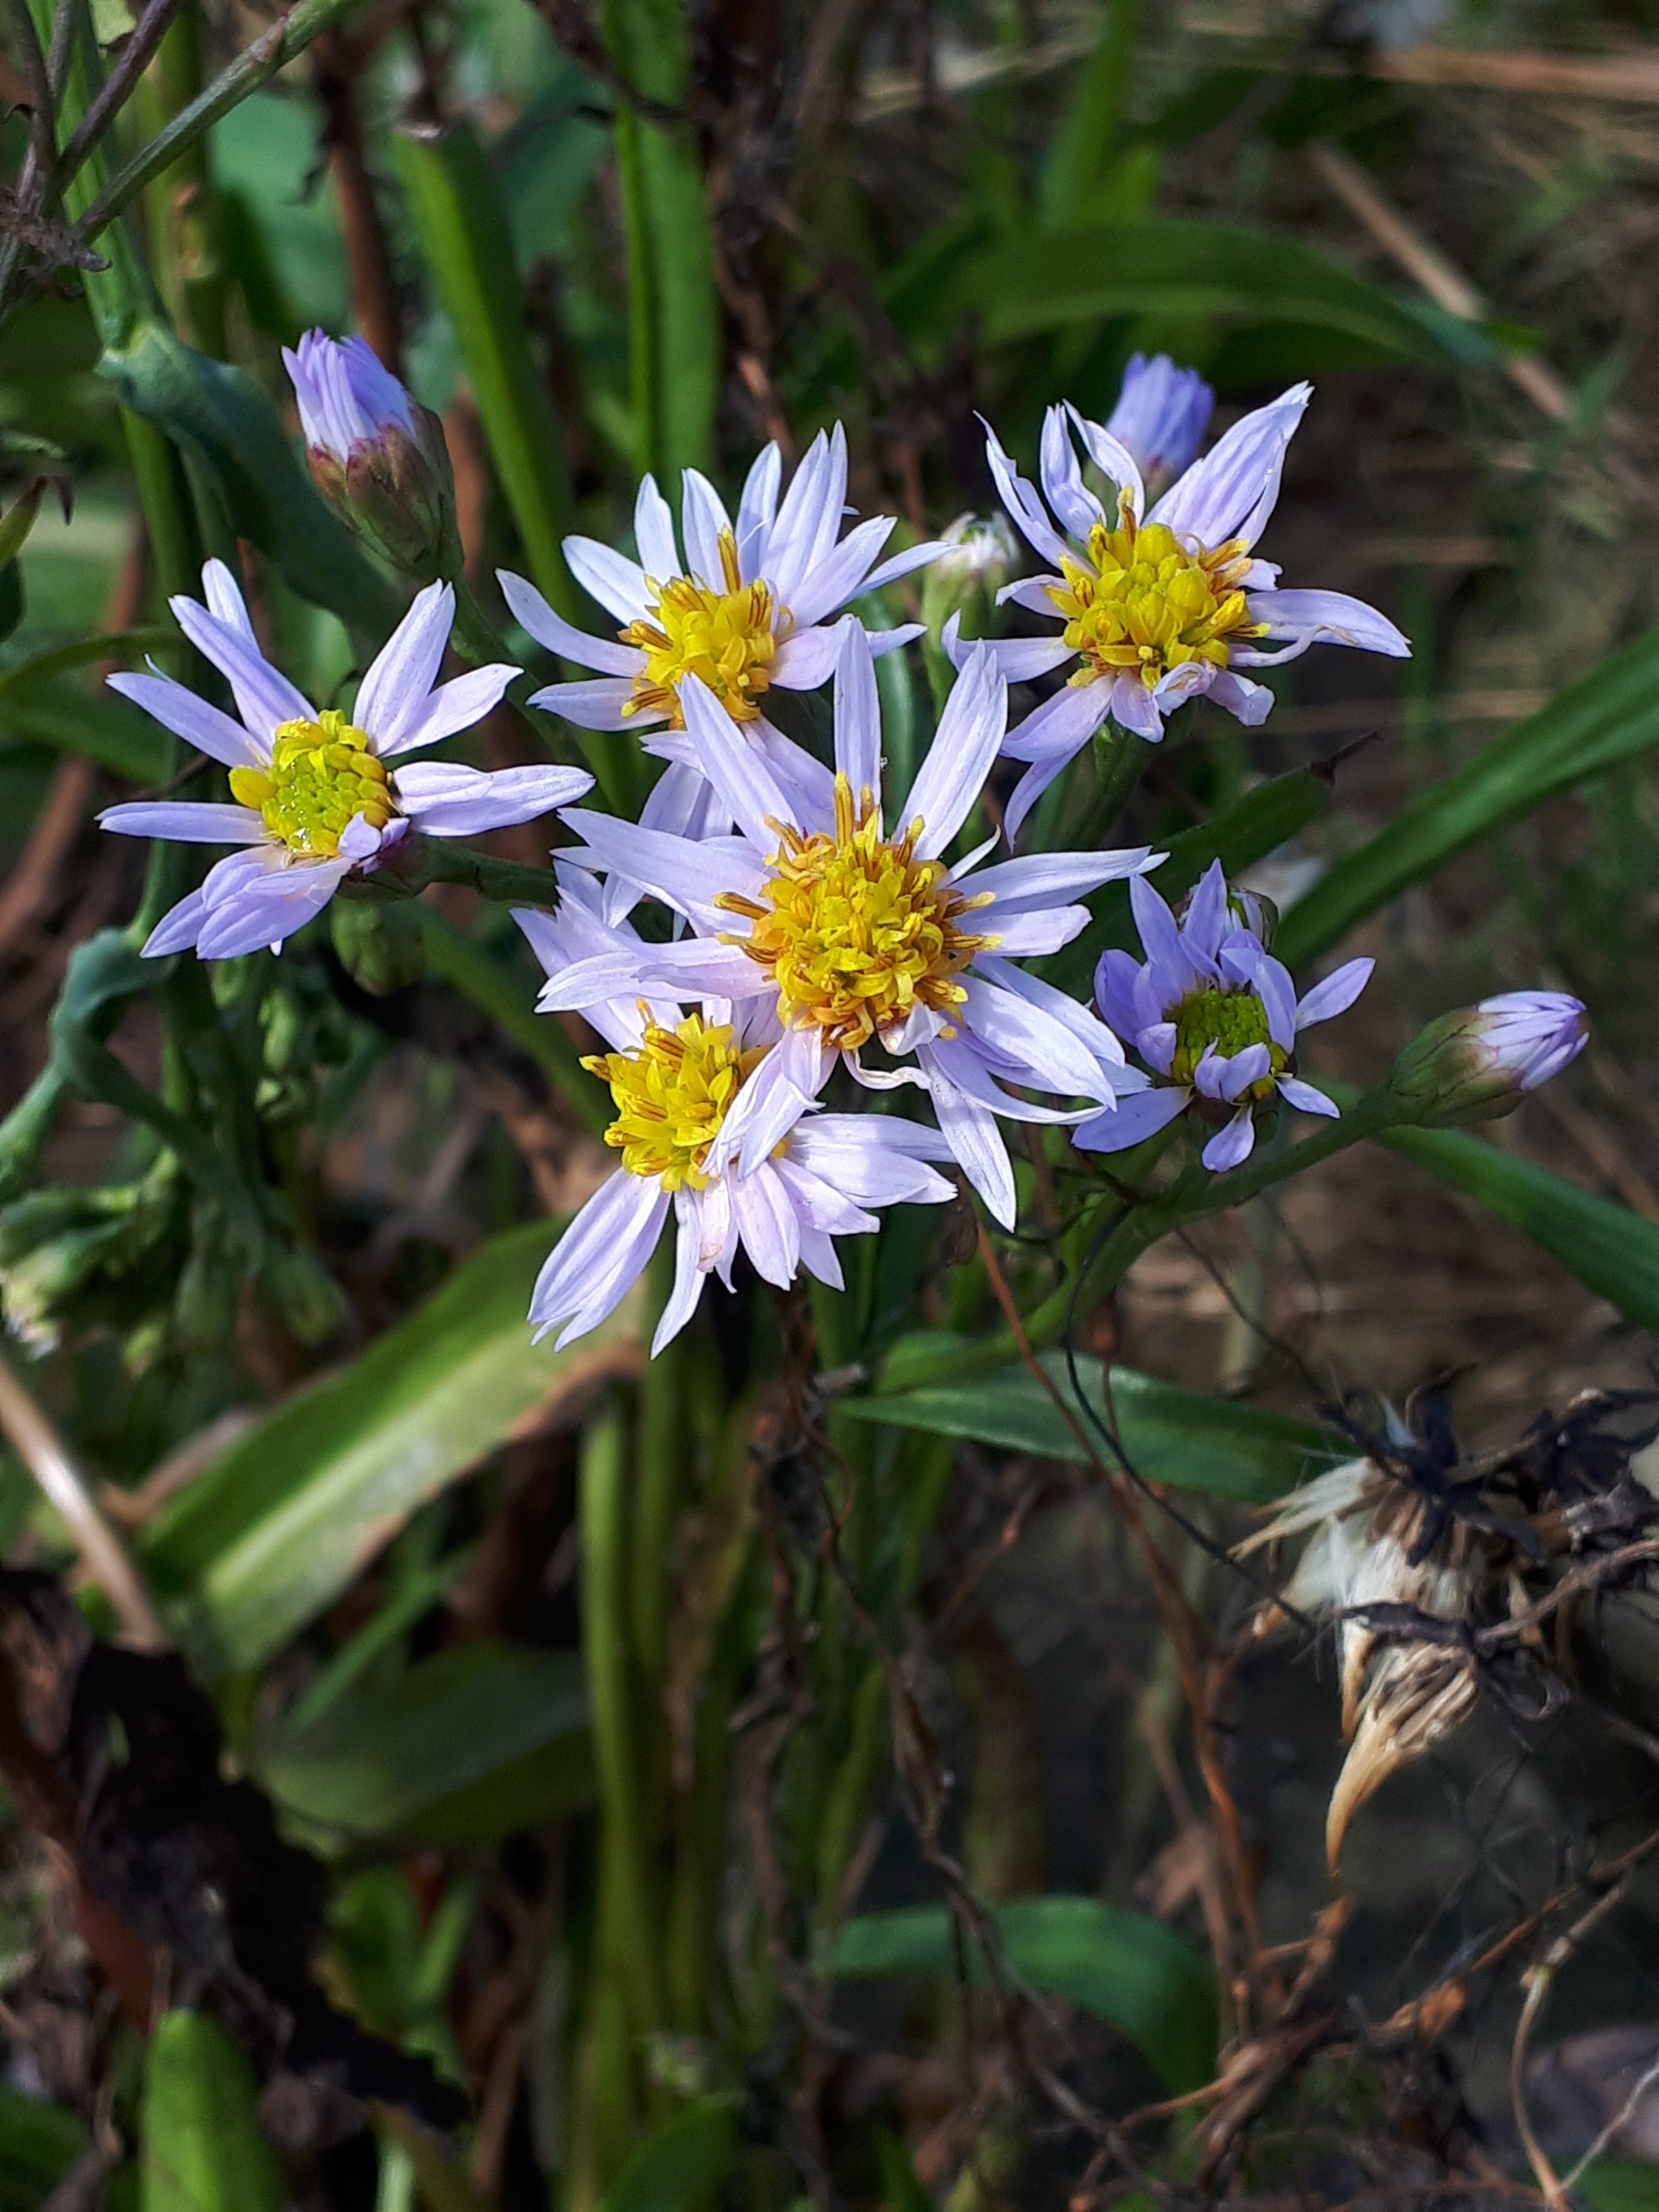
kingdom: Plantae
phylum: Tracheophyta
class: Magnoliopsida
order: Asterales
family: Asteraceae
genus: Tripolium
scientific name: Tripolium pannonicum
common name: Strandasters
